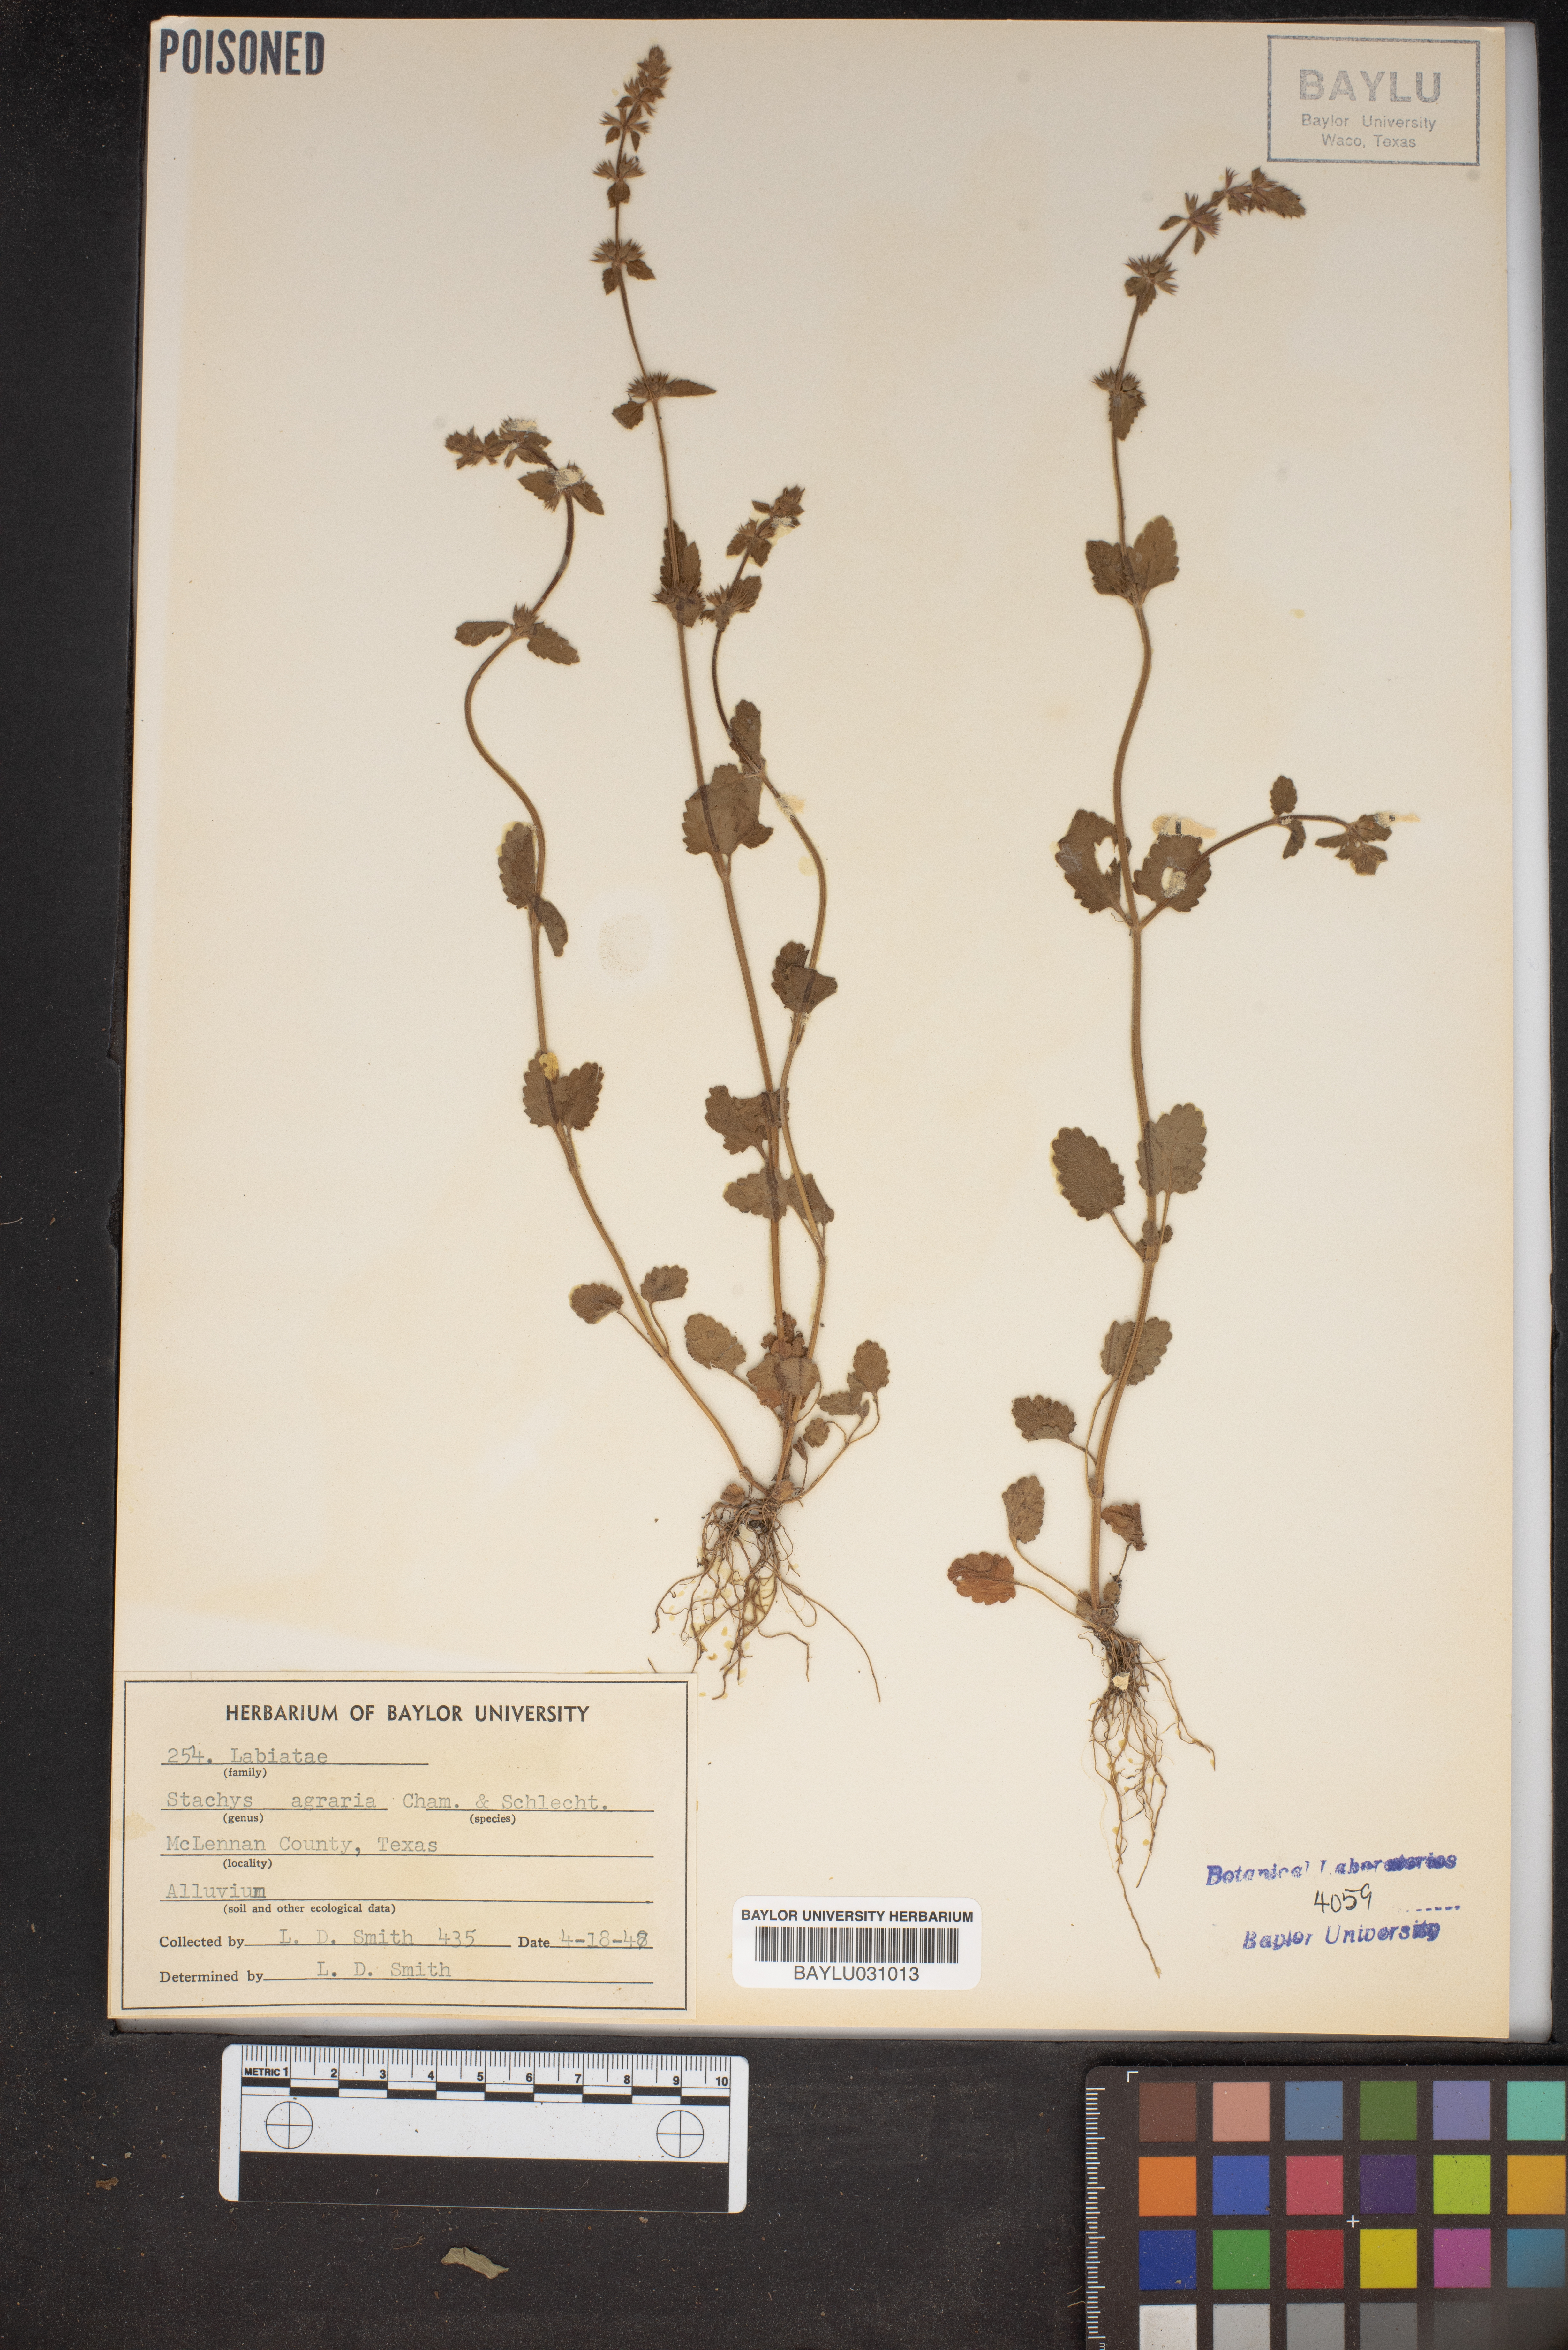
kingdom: Plantae
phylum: Tracheophyta
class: Magnoliopsida
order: Lamiales
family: Lamiaceae
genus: Stachys
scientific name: Stachys agraria
